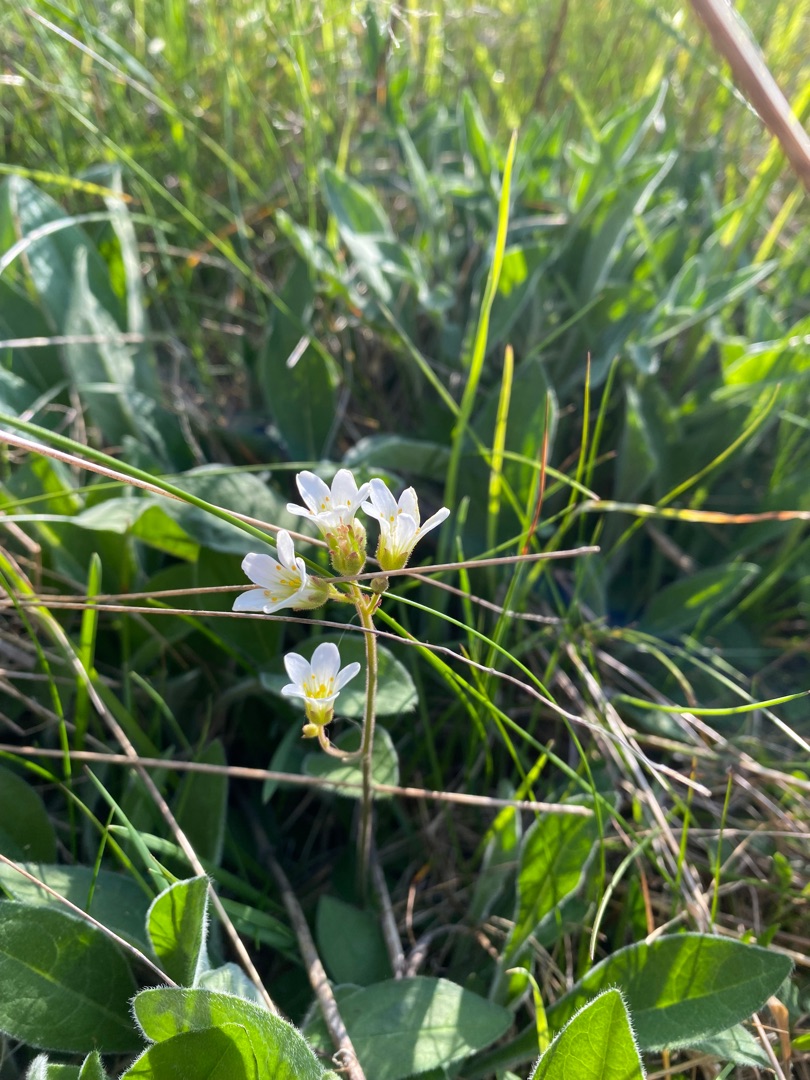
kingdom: Plantae
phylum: Tracheophyta
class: Magnoliopsida
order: Saxifragales
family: Saxifragaceae
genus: Saxifraga
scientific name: Saxifraga granulata
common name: Kornet stenbræk
